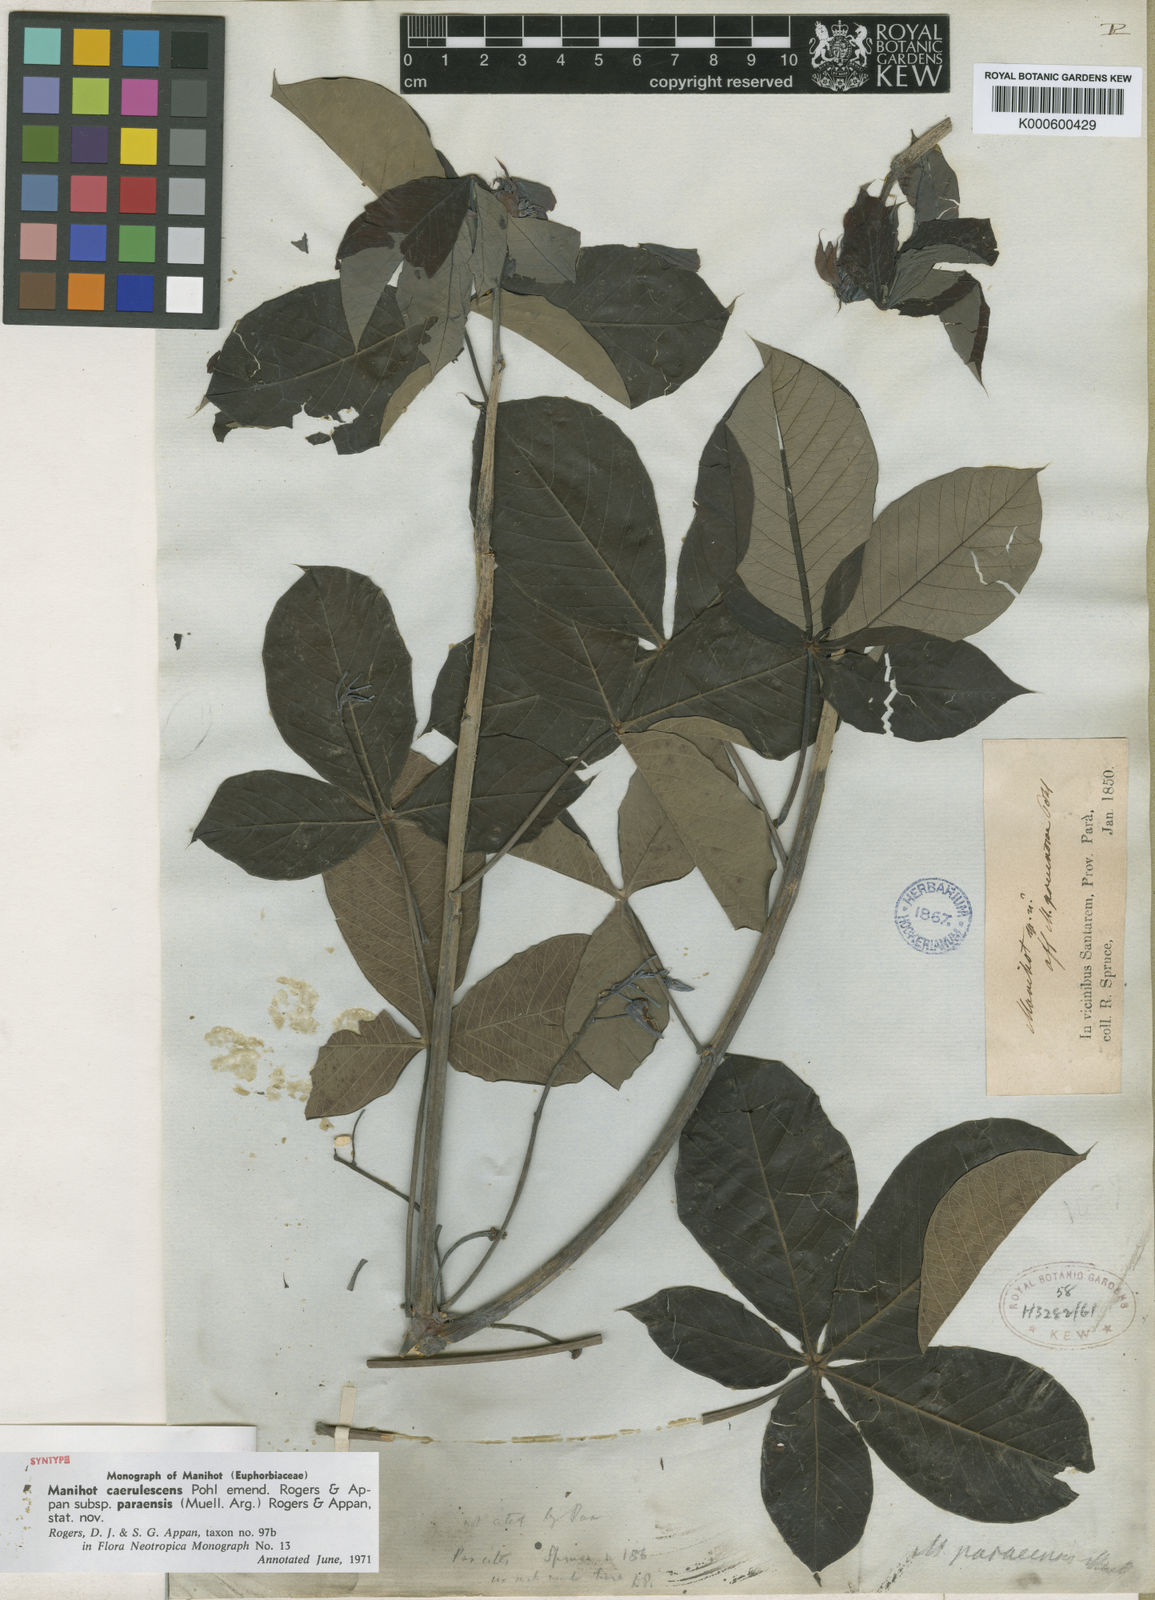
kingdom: Plantae
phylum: Tracheophyta
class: Magnoliopsida
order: Malpighiales
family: Euphorbiaceae
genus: Manihot
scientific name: Manihot caerulescens
